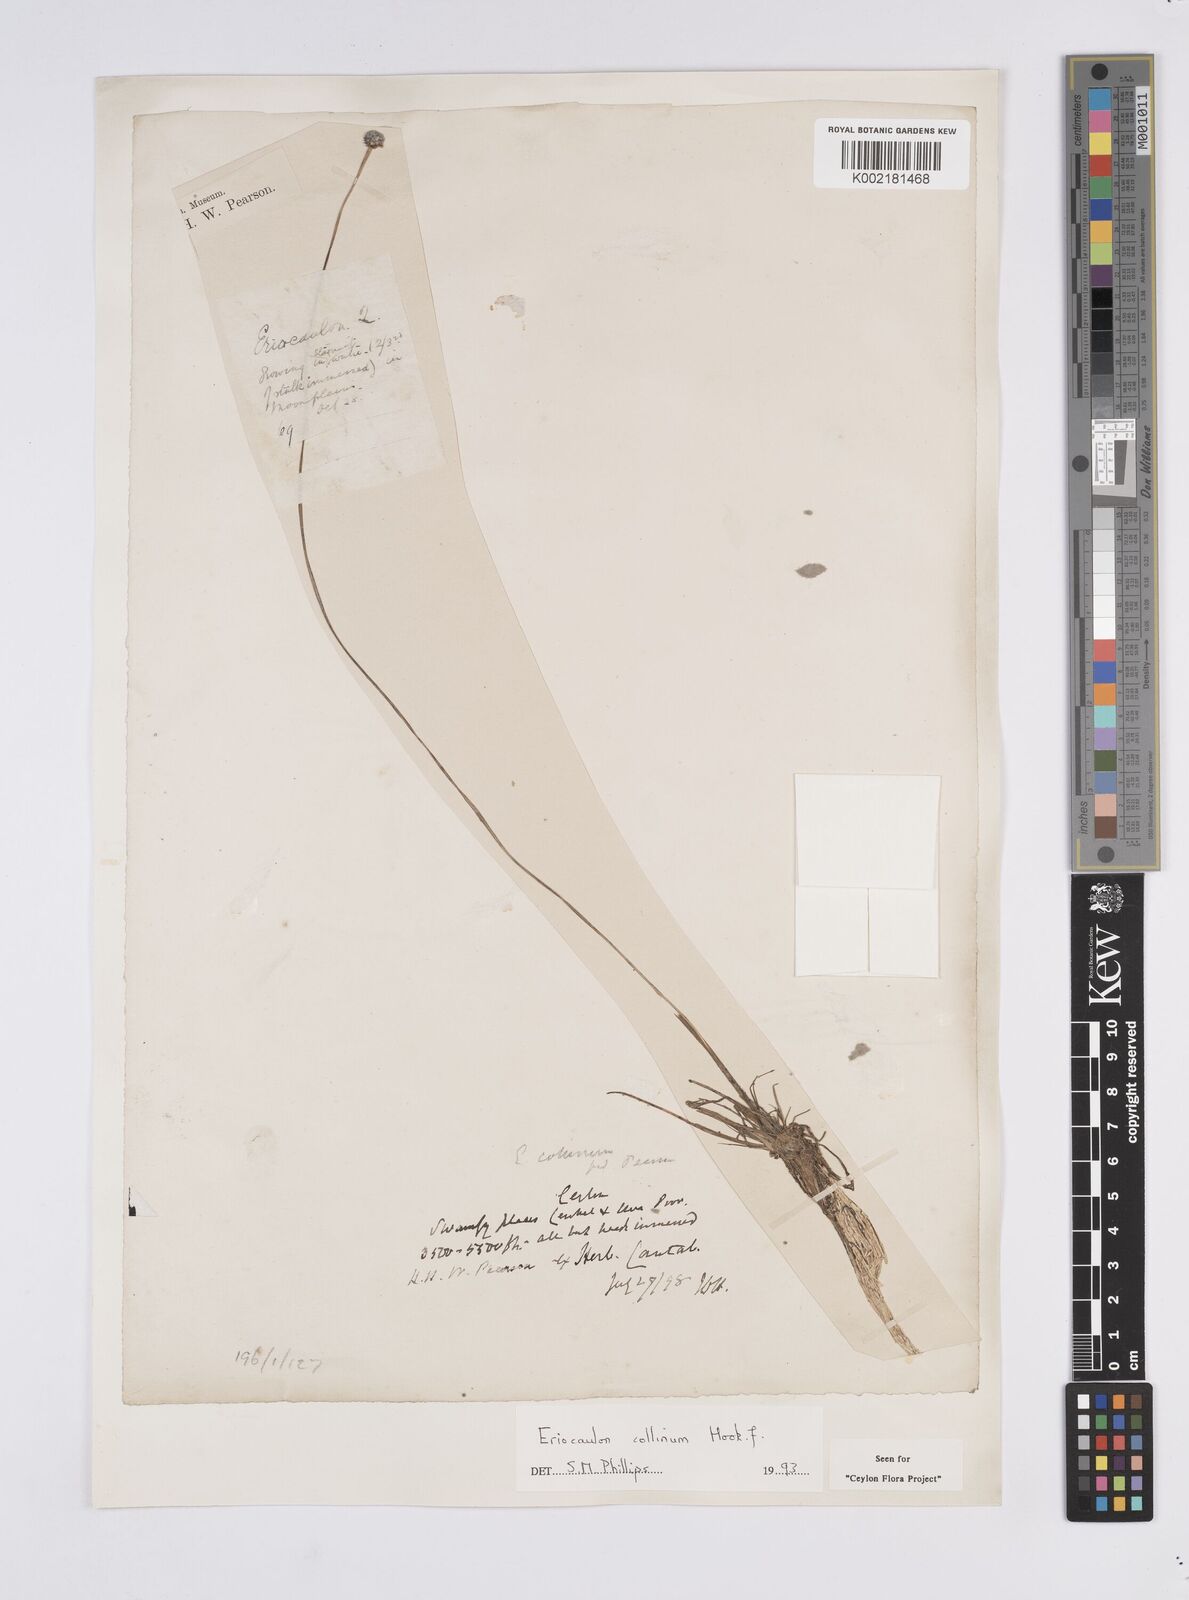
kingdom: Plantae
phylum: Tracheophyta
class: Liliopsida
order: Poales
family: Eriocaulaceae
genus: Eriocaulon
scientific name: Eriocaulon odoratum
